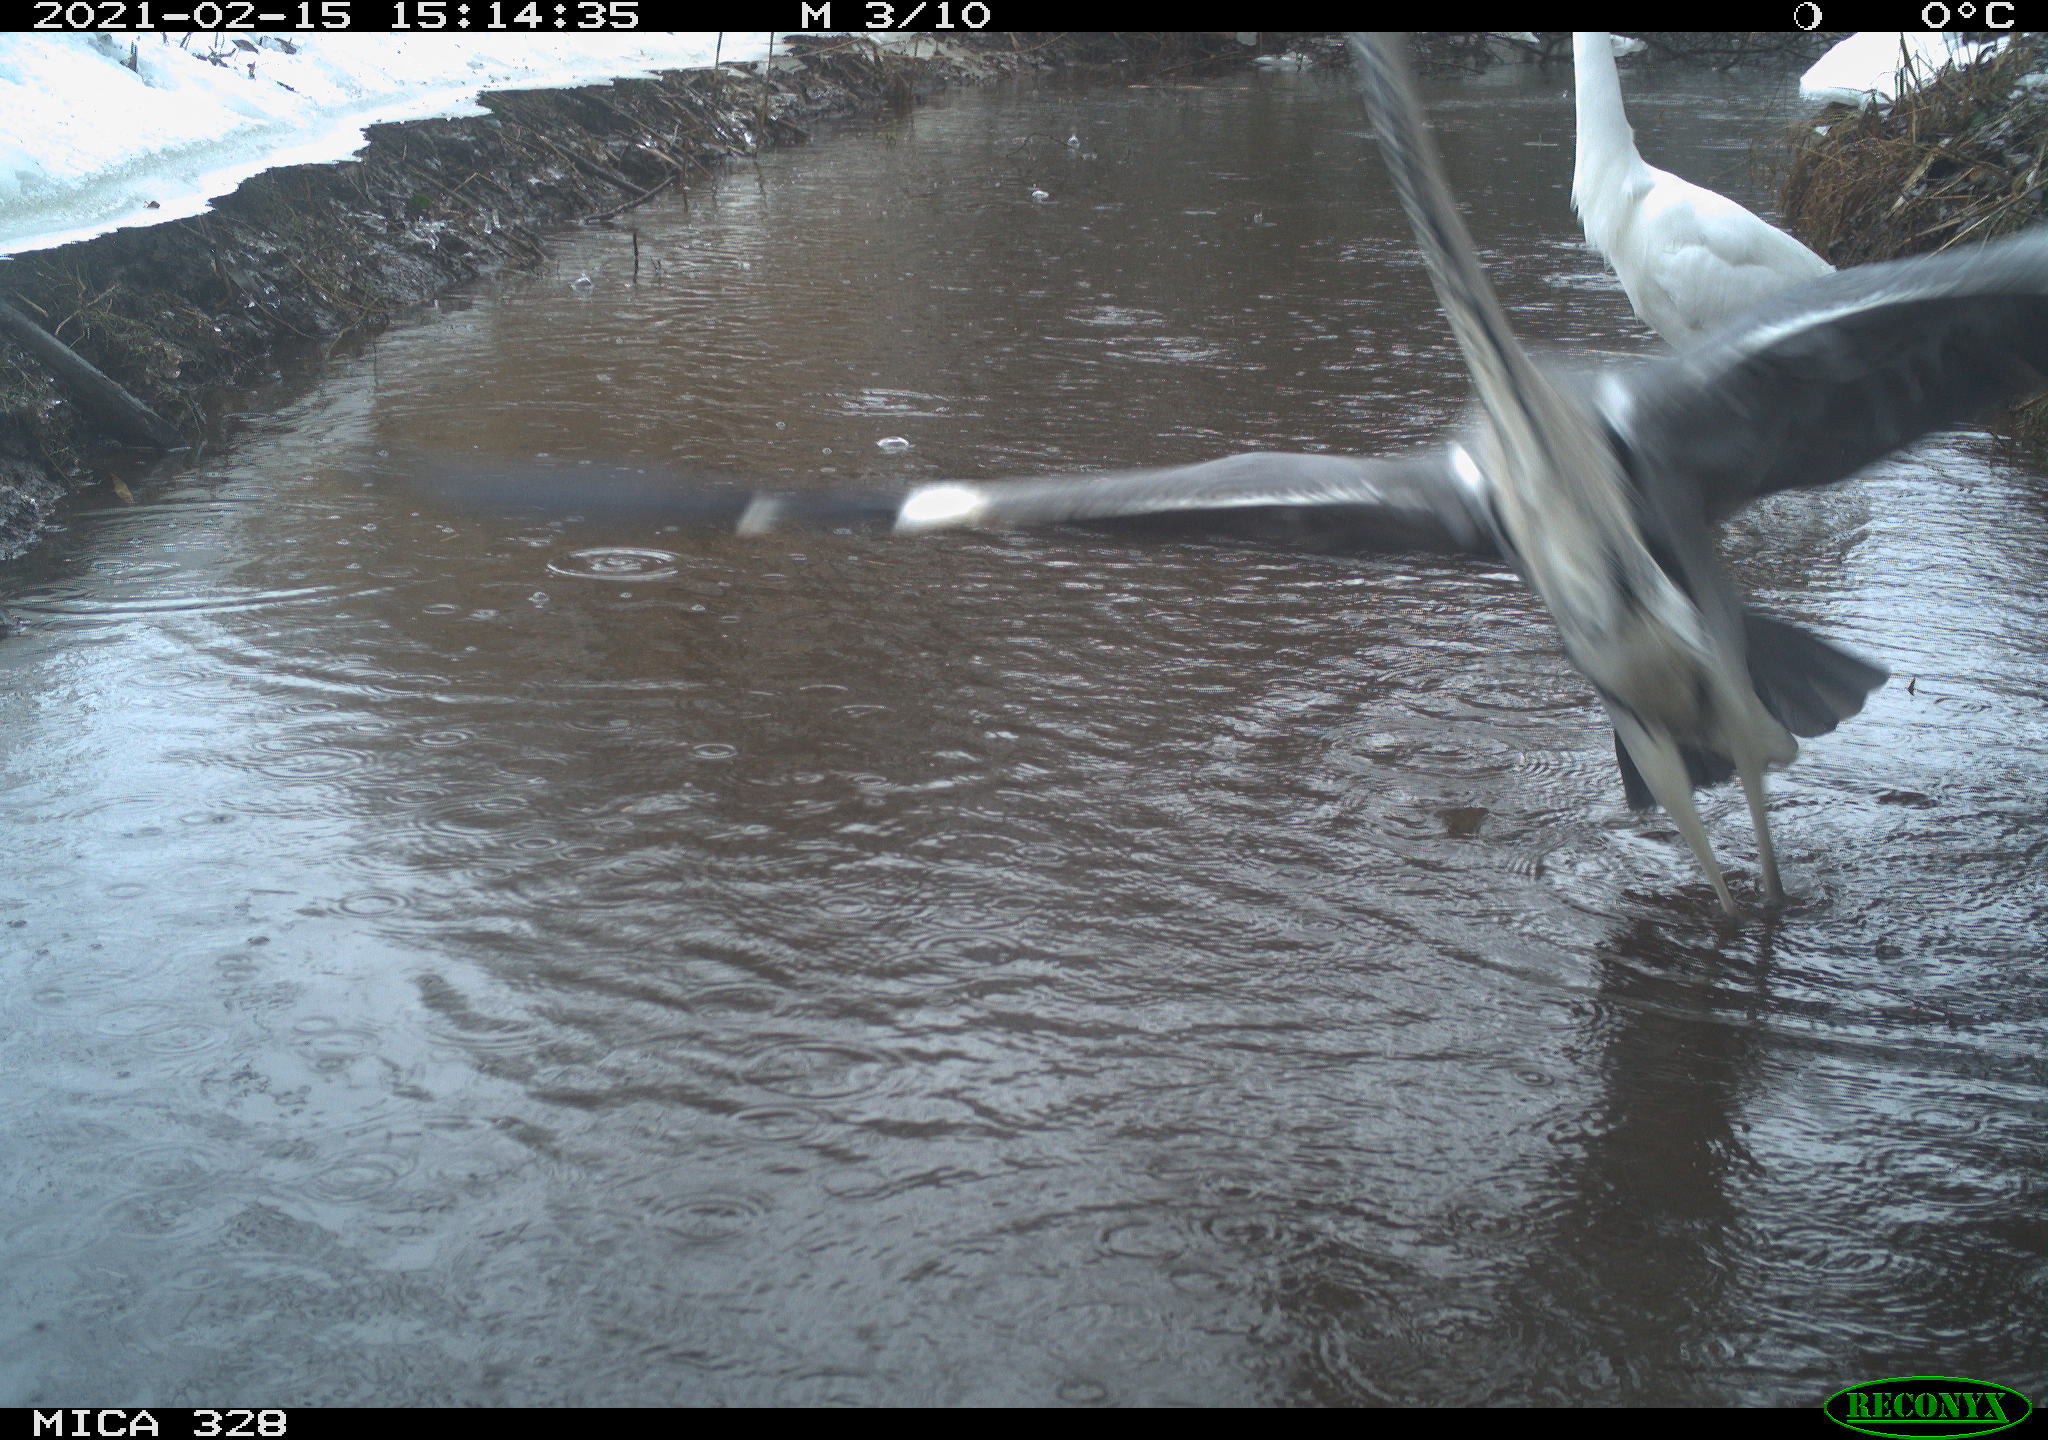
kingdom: Animalia
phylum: Chordata
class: Aves
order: Pelecaniformes
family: Ardeidae
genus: Ardea
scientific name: Ardea cinerea
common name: Grey heron
